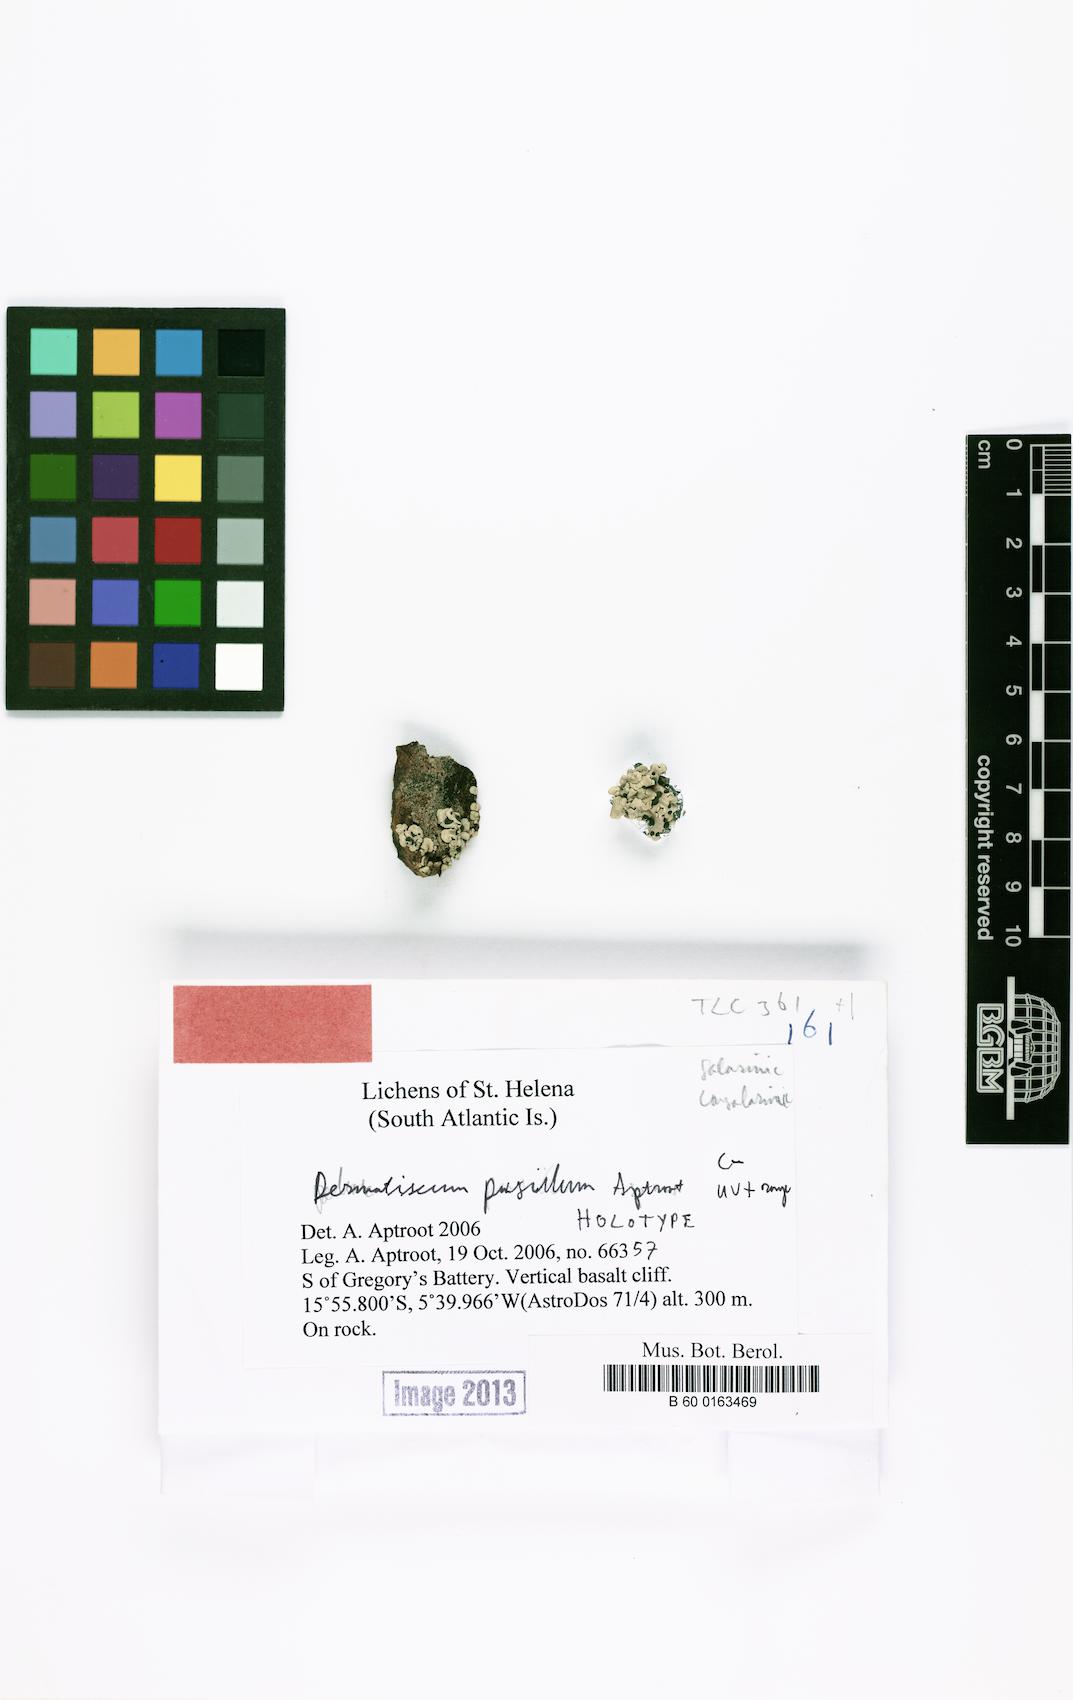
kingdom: Fungi
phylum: Ascomycota
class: Lecanoromycetes
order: Caliciales
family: Caliciaceae
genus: Dermatiscum
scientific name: Dermatiscum pusillum
